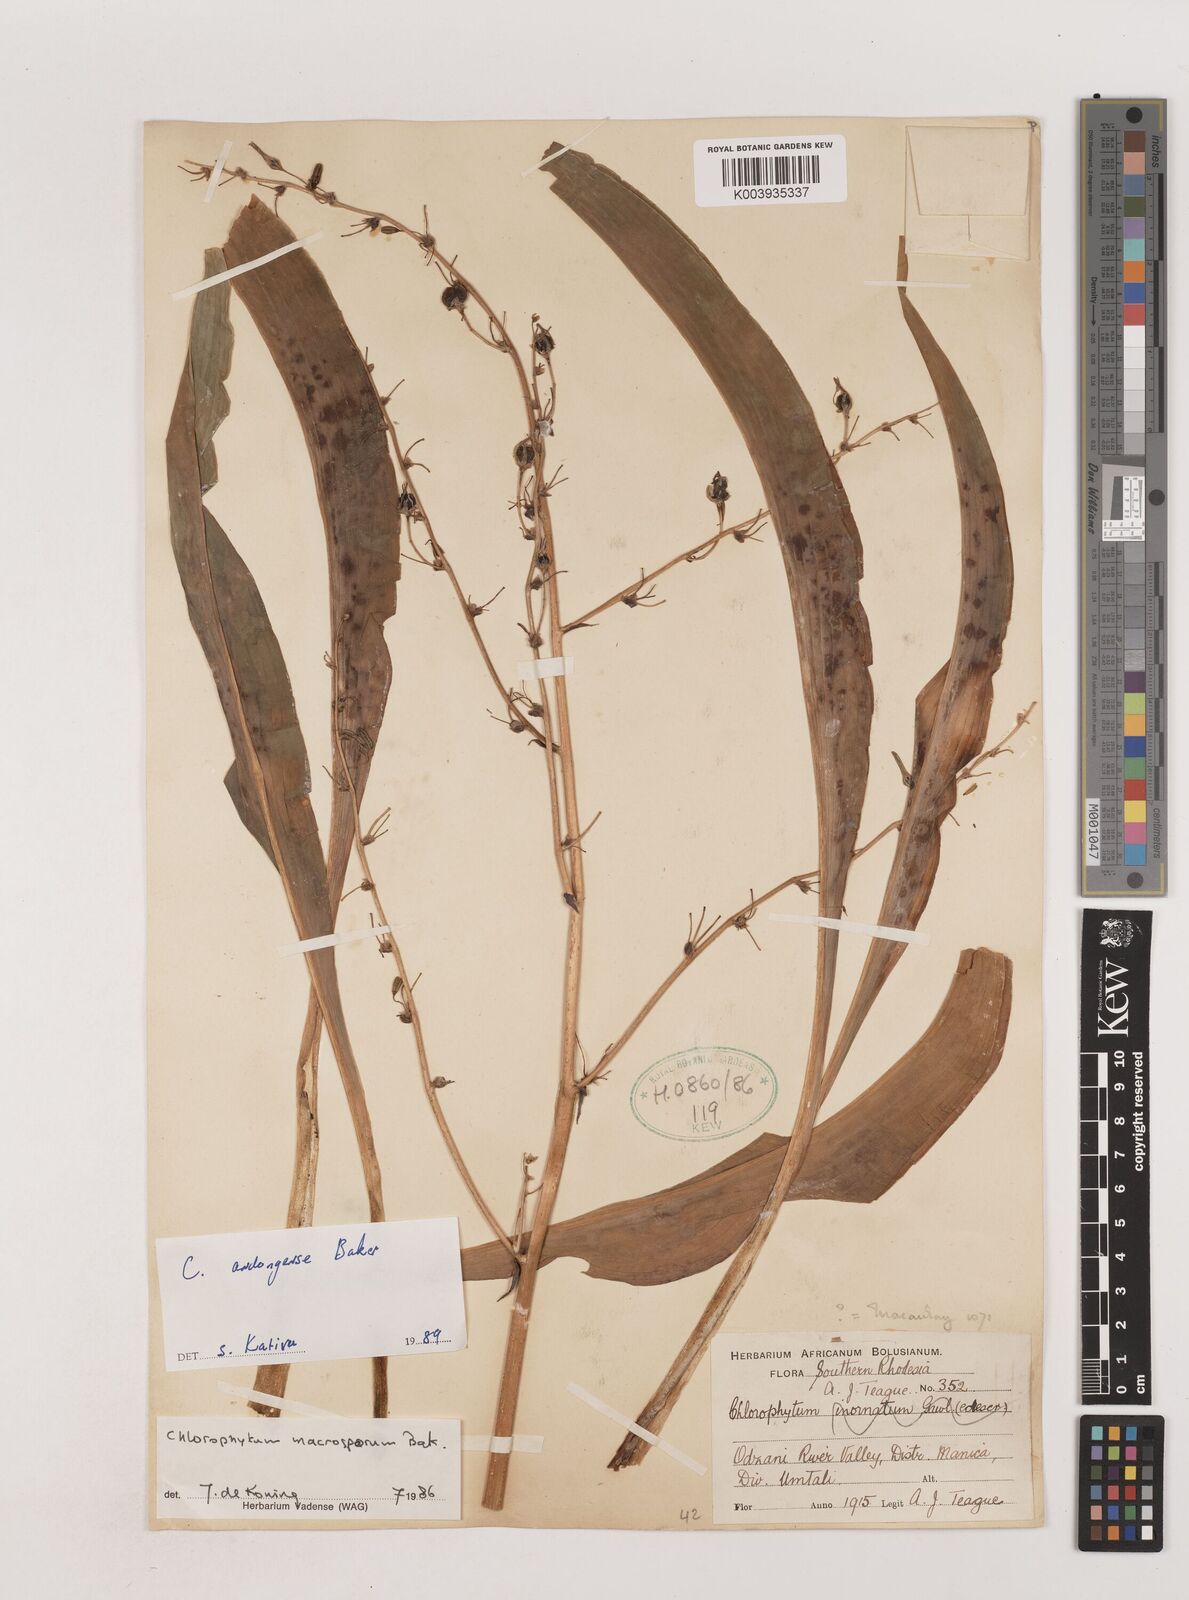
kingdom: Plantae
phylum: Tracheophyta
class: Liliopsida
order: Asparagales
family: Asparagaceae
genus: Chlorophytum
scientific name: Chlorophytum andongense
